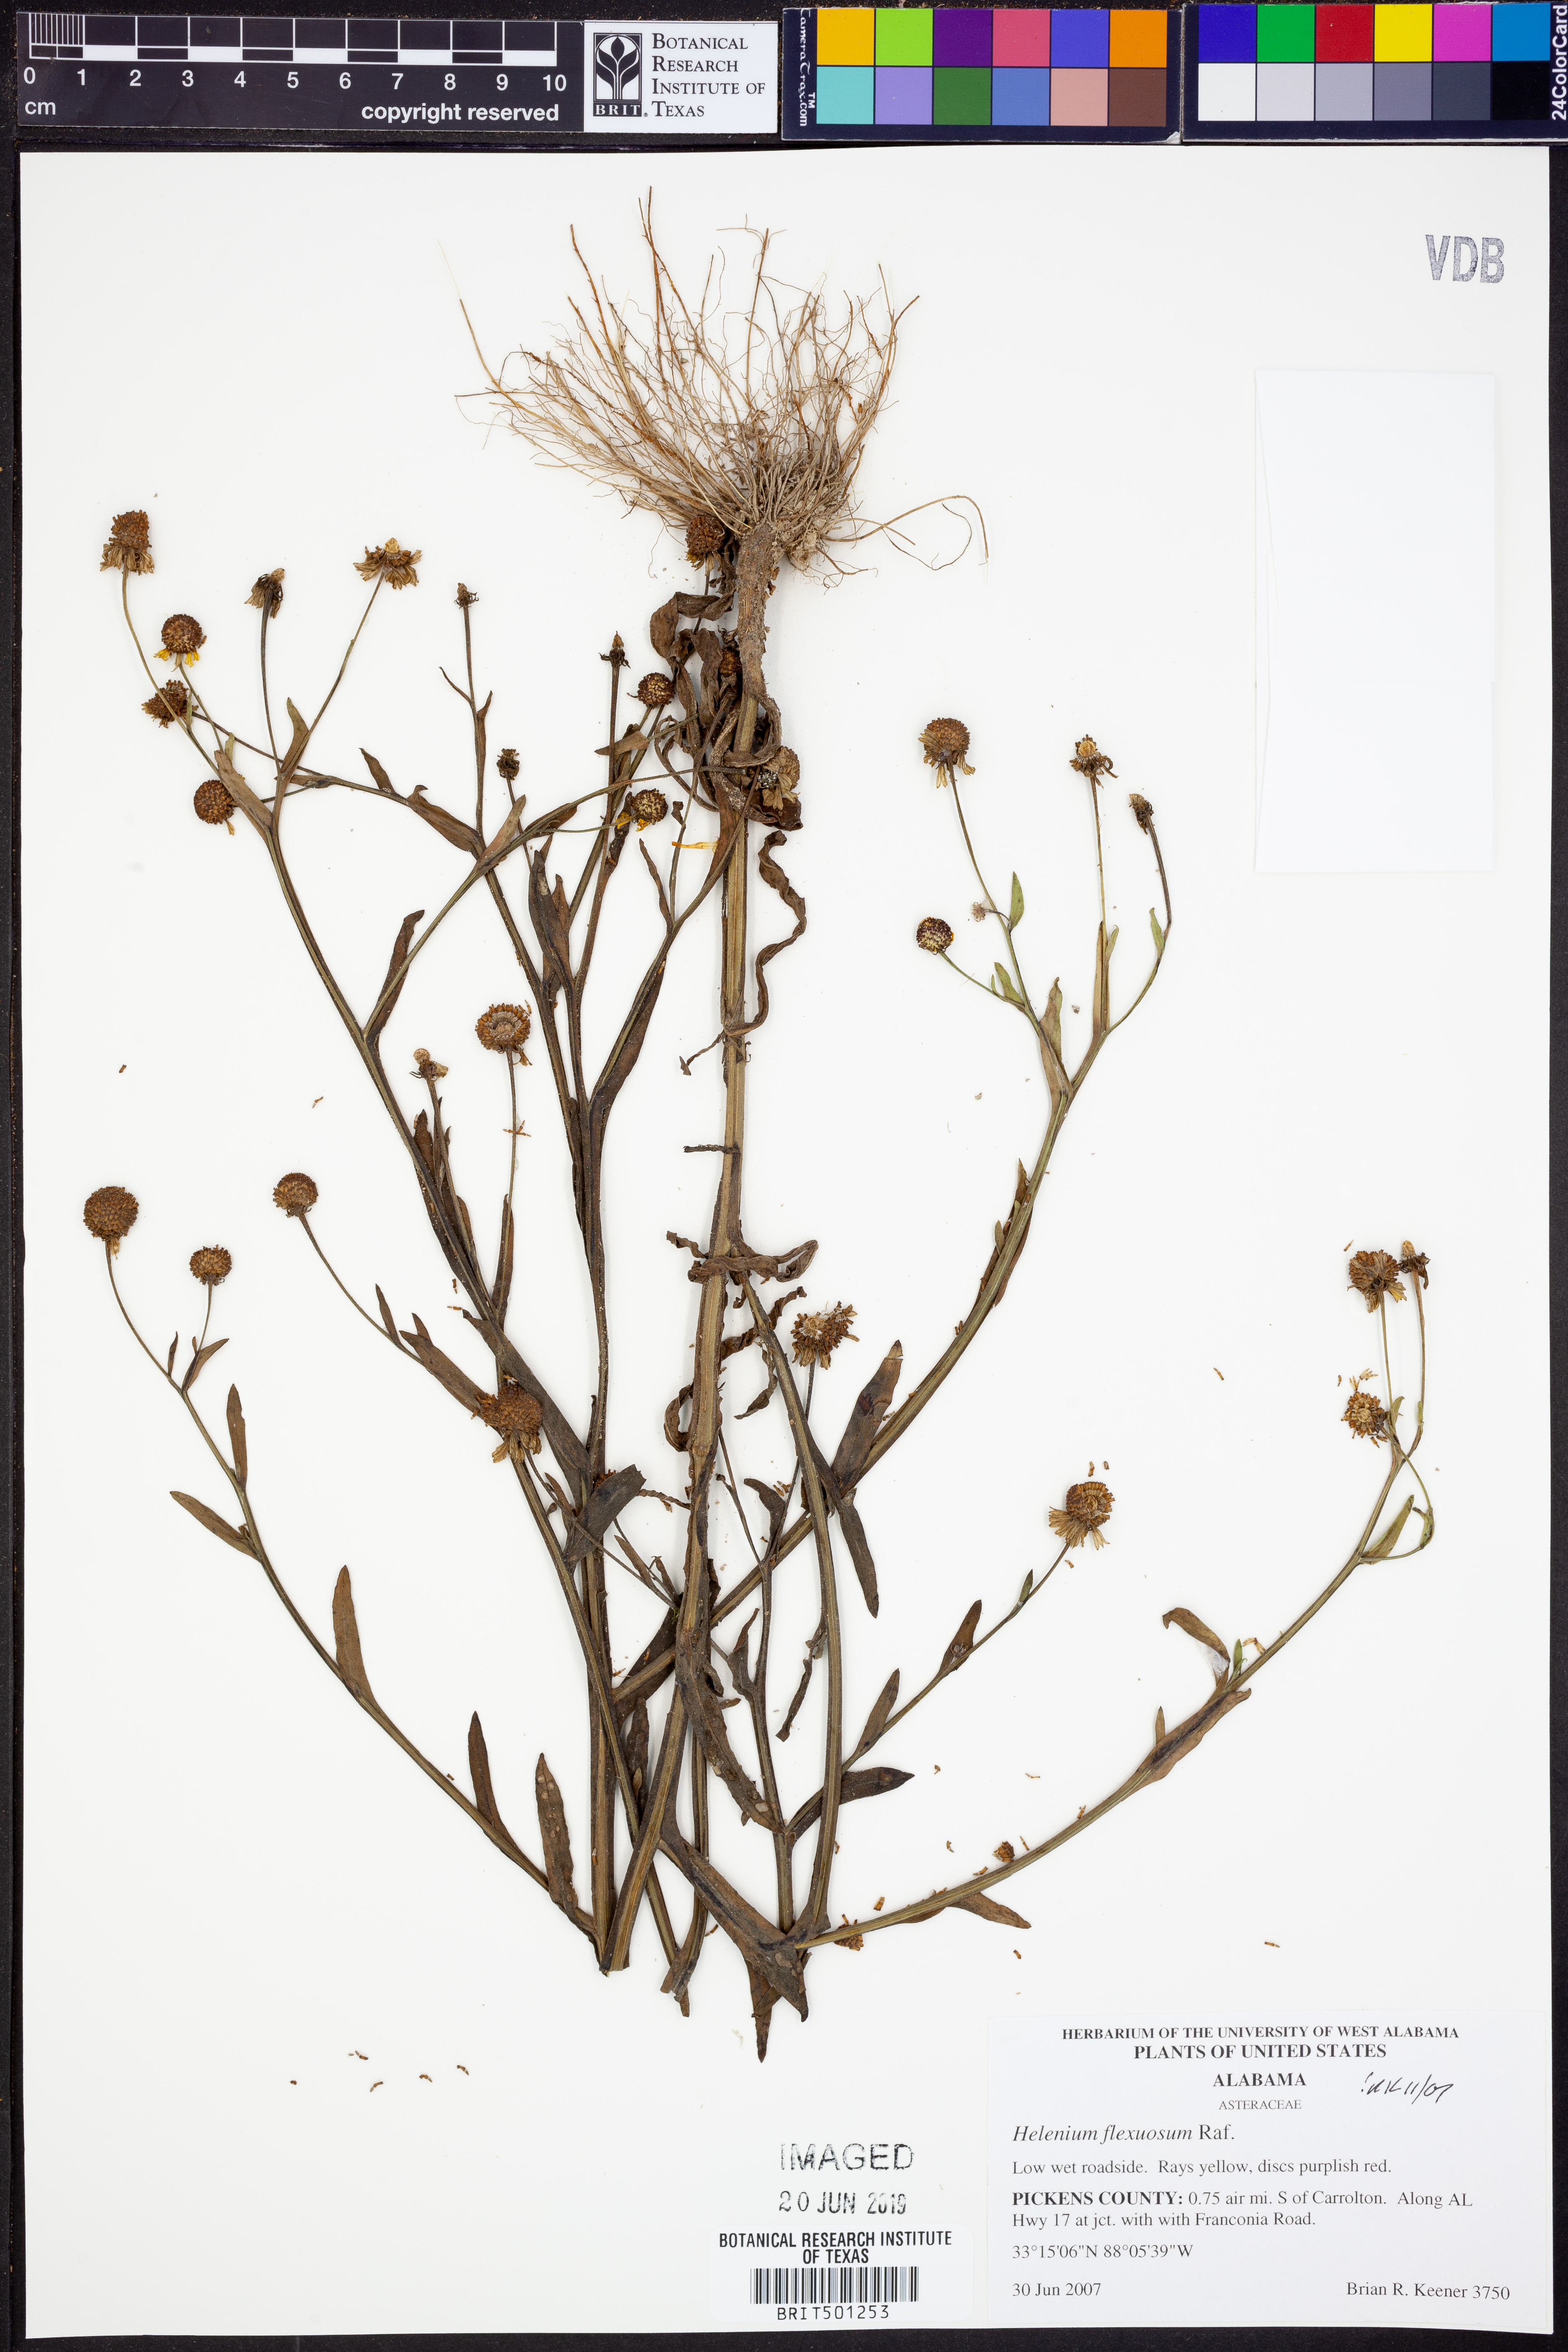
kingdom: Plantae
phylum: Tracheophyta
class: Magnoliopsida
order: Asterales
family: Asteraceae
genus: Helenium
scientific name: Helenium flexuosum
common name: Naked-flowered sneezeweed
